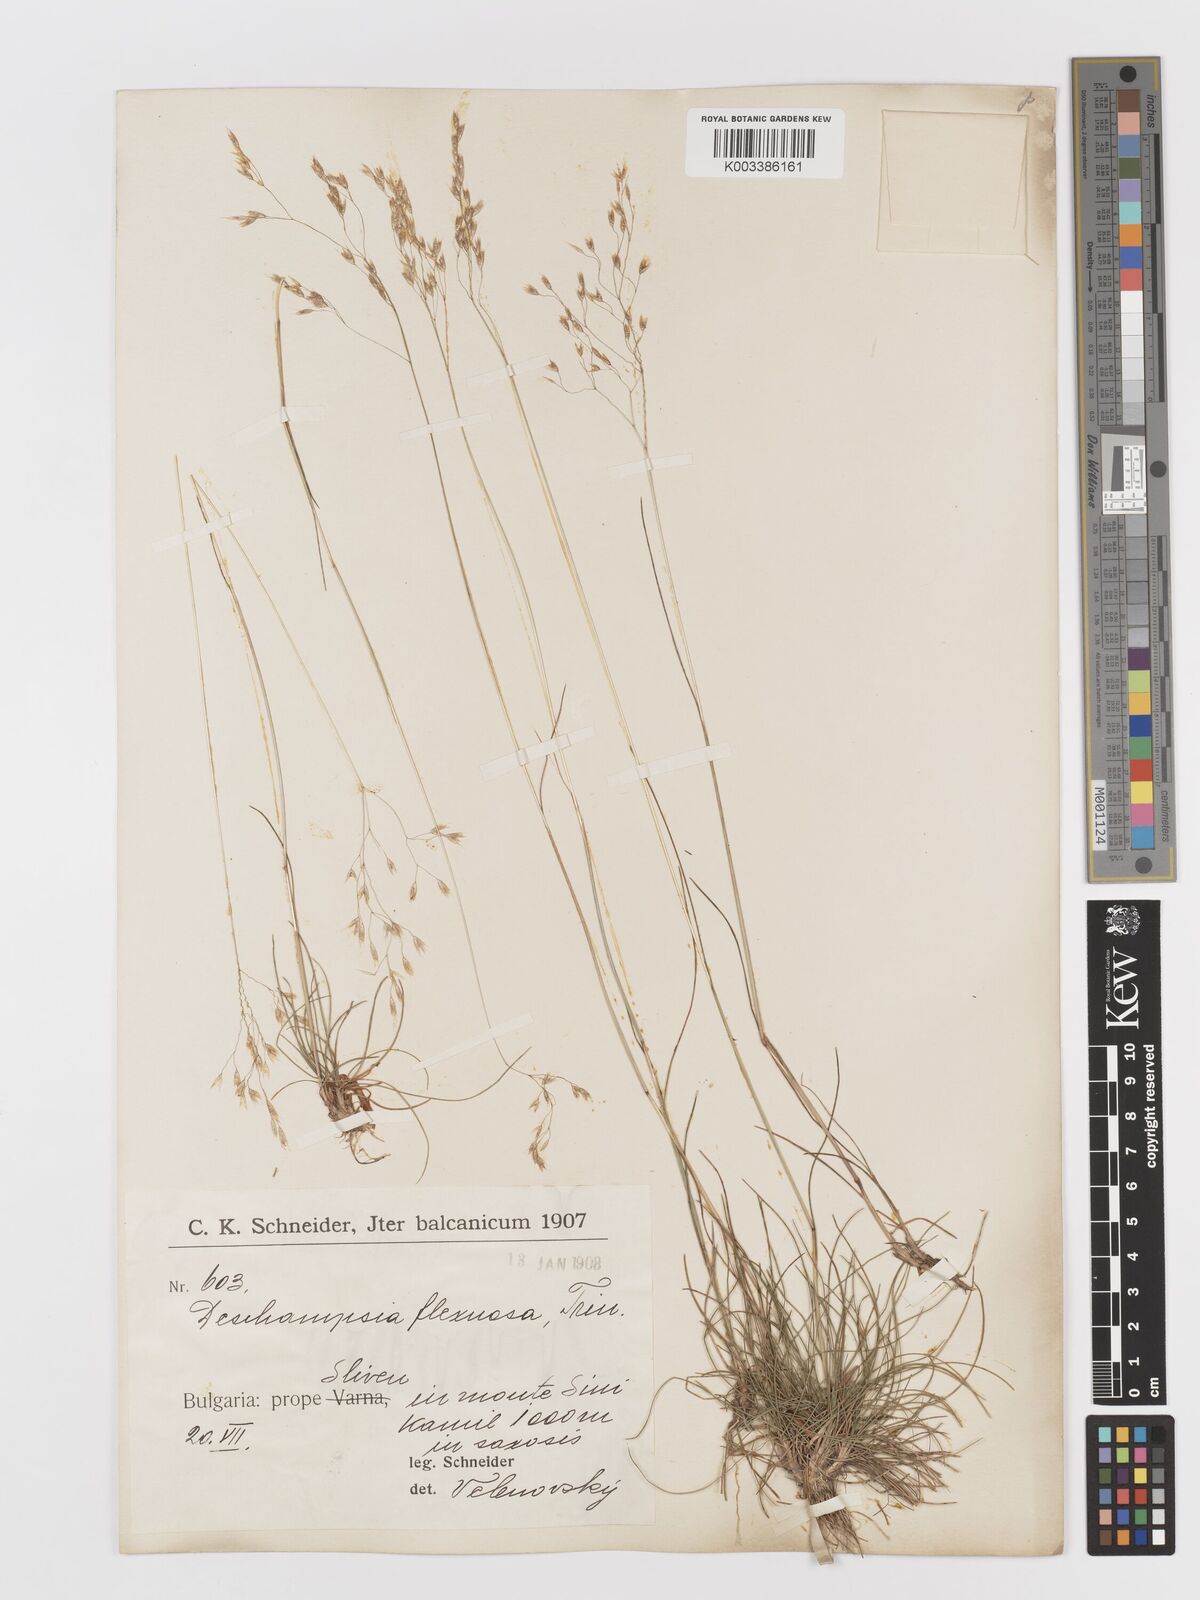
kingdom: Plantae
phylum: Tracheophyta
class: Liliopsida
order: Poales
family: Poaceae
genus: Avenella
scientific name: Avenella flexuosa
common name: Wavy hairgrass
